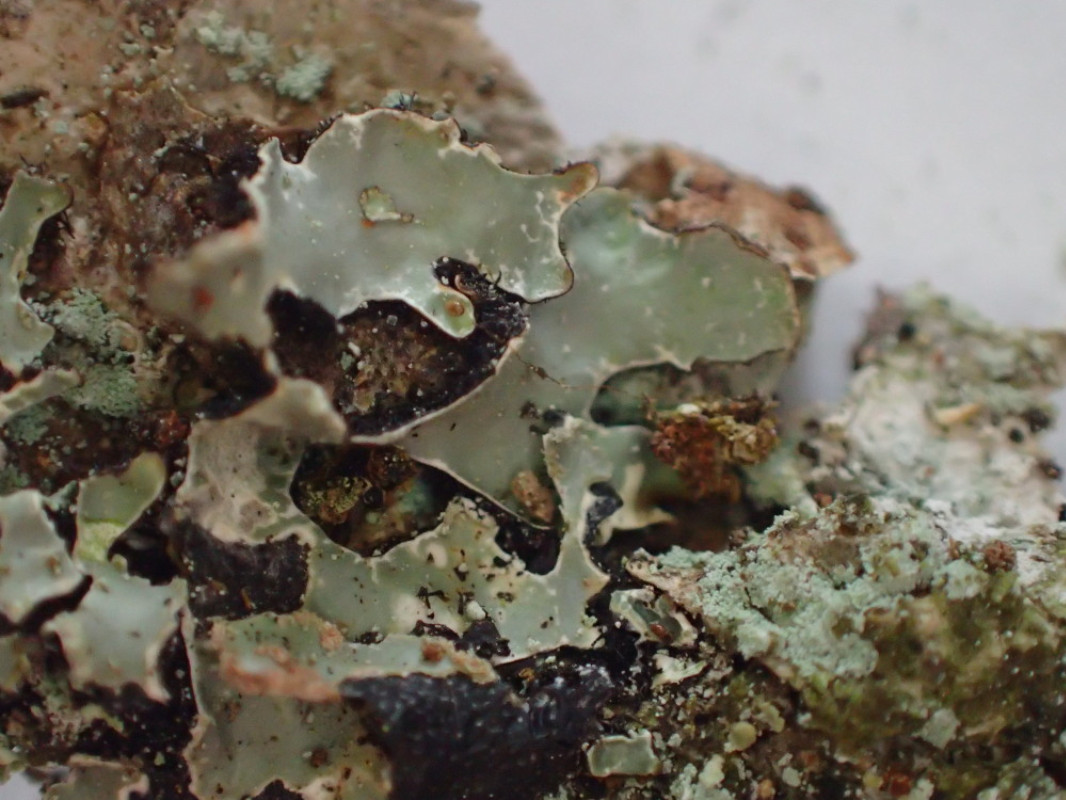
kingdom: Fungi
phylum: Ascomycota
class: Lecanoromycetes
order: Lecanorales
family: Parmeliaceae
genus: Parmelia
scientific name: Parmelia sulcata
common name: rynket skållav
